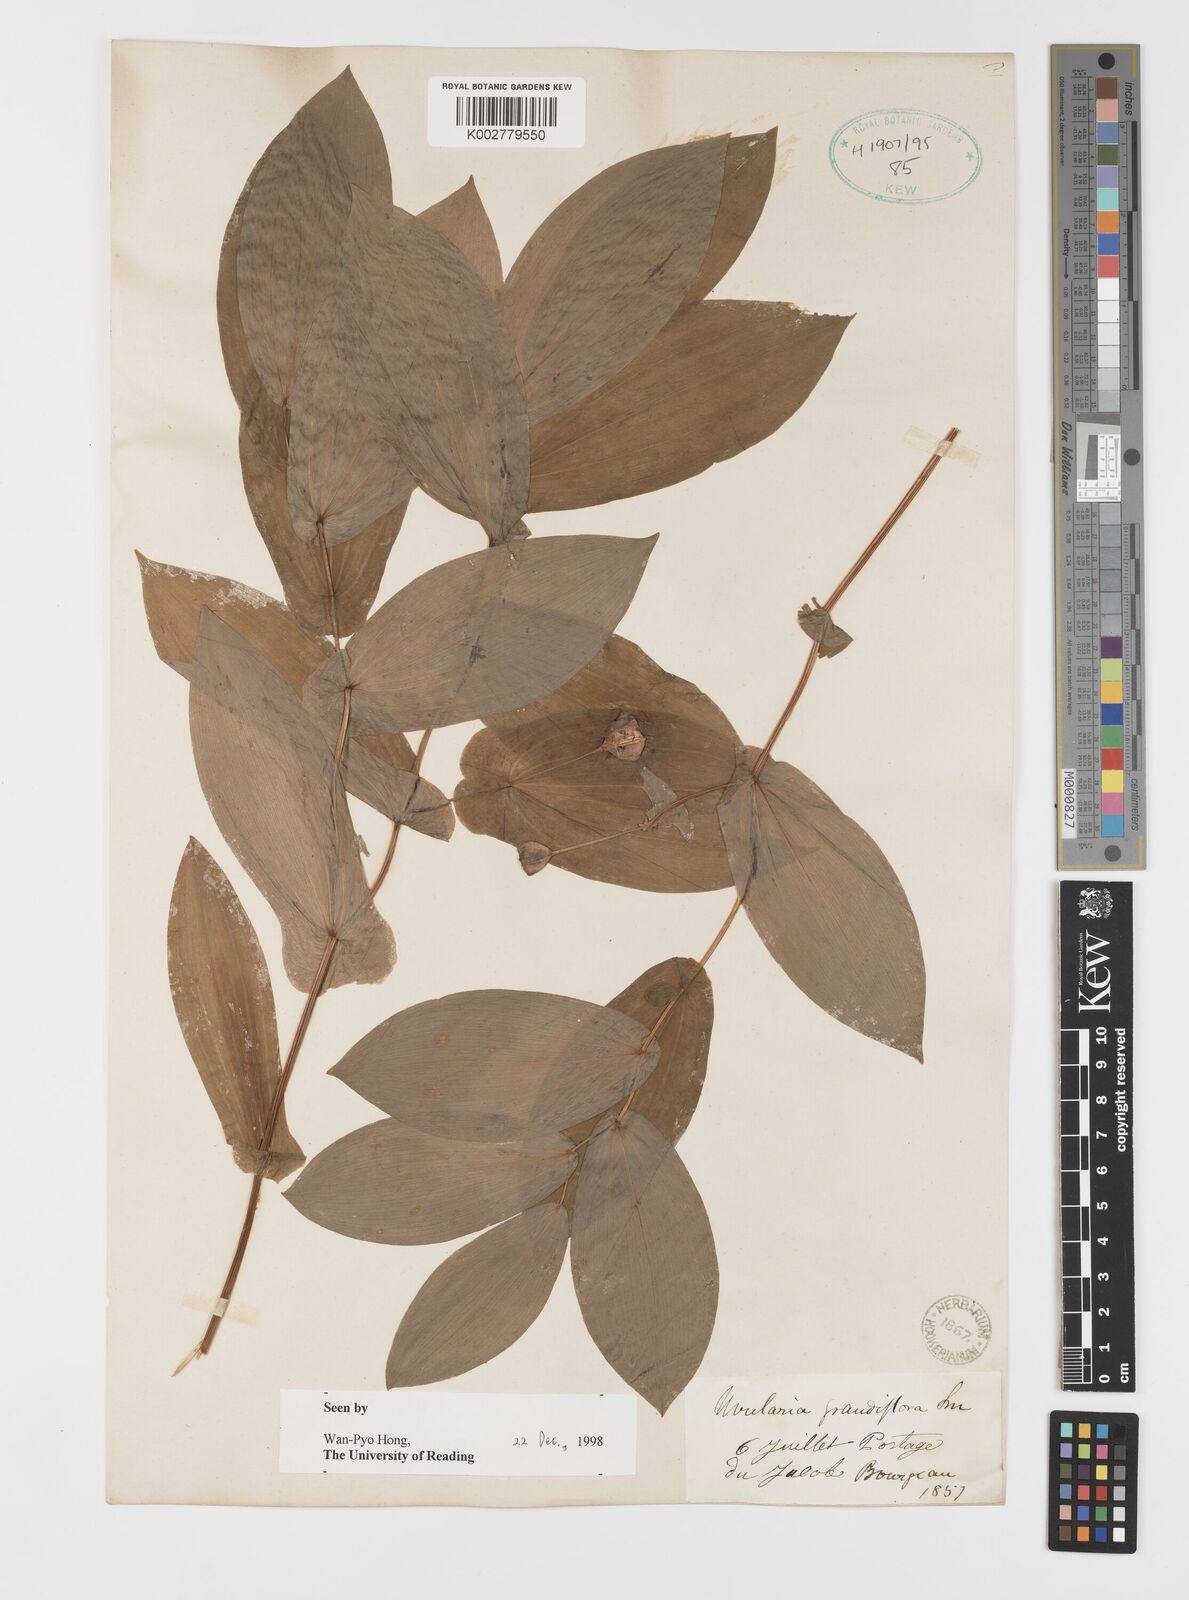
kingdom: Plantae
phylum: Tracheophyta
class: Liliopsida
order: Liliales
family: Colchicaceae
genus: Uvularia
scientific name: Uvularia grandiflora
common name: Bellwort
